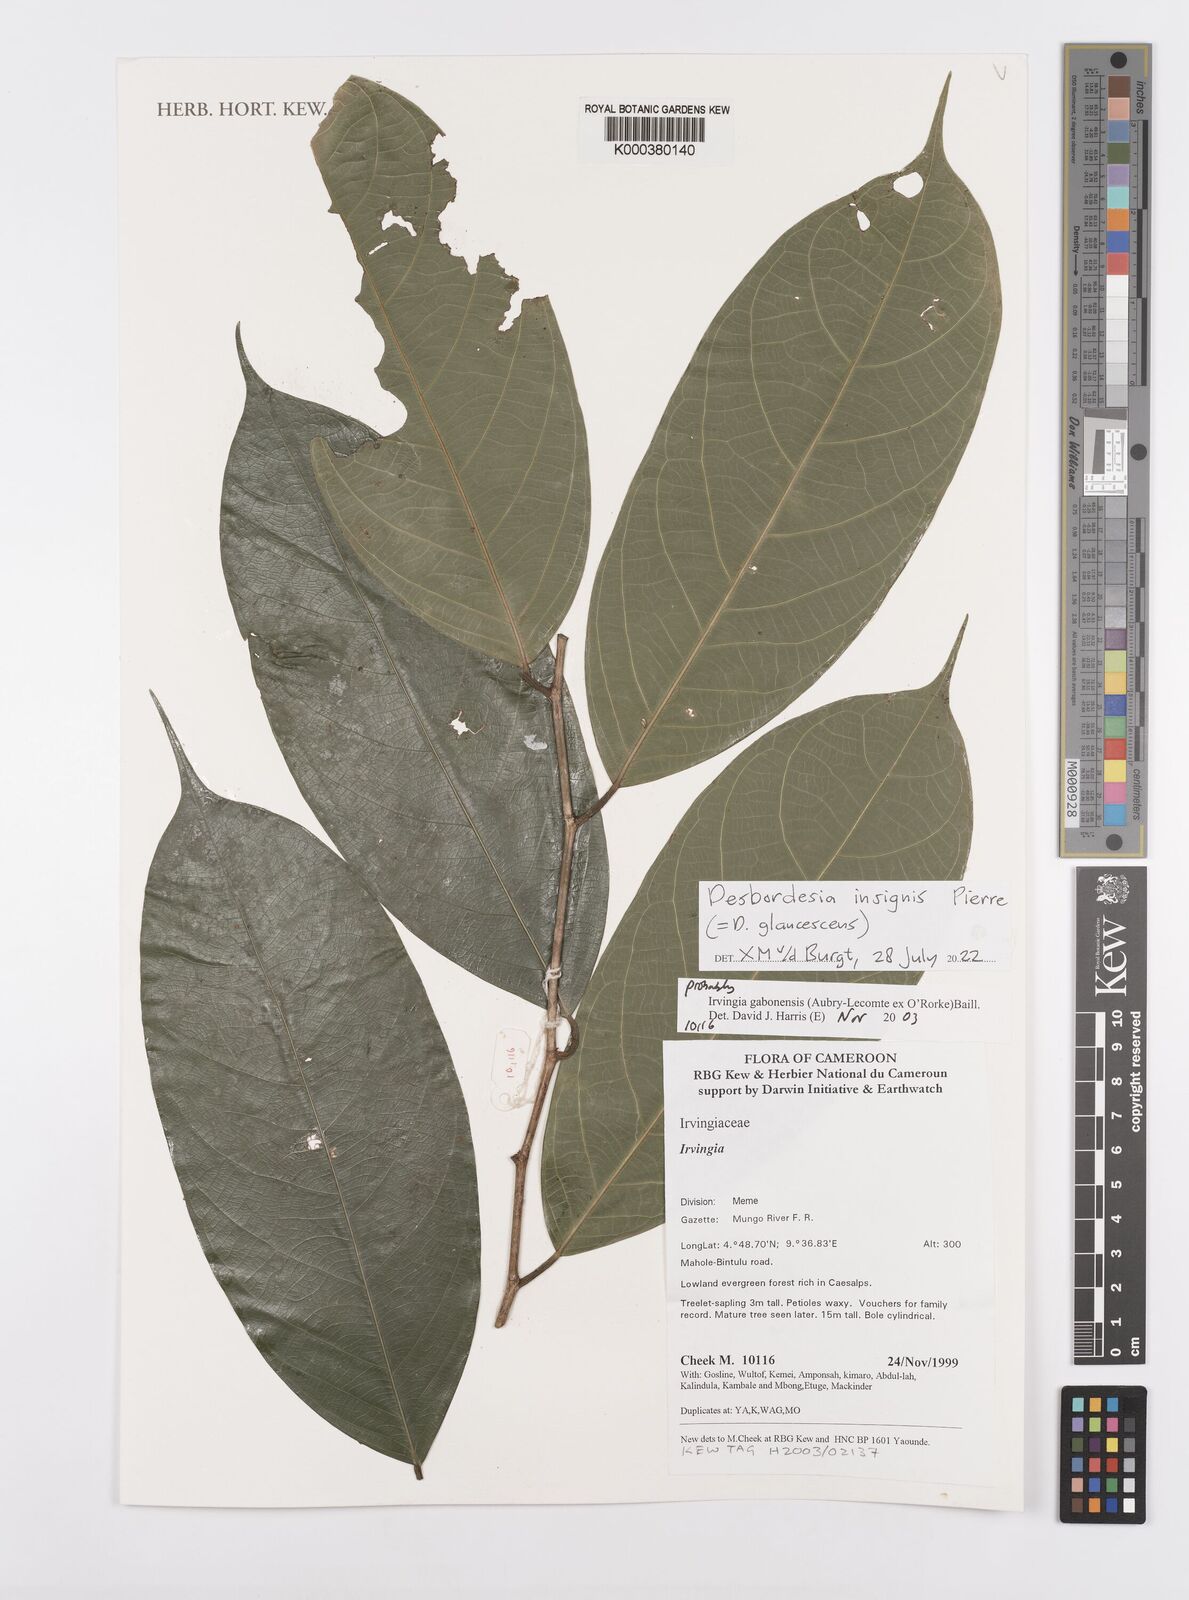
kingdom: Plantae
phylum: Tracheophyta
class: Magnoliopsida
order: Malpighiales
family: Irvingiaceae
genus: Irvingia
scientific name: Irvingia gabonensis
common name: Rainy season bush-mango
